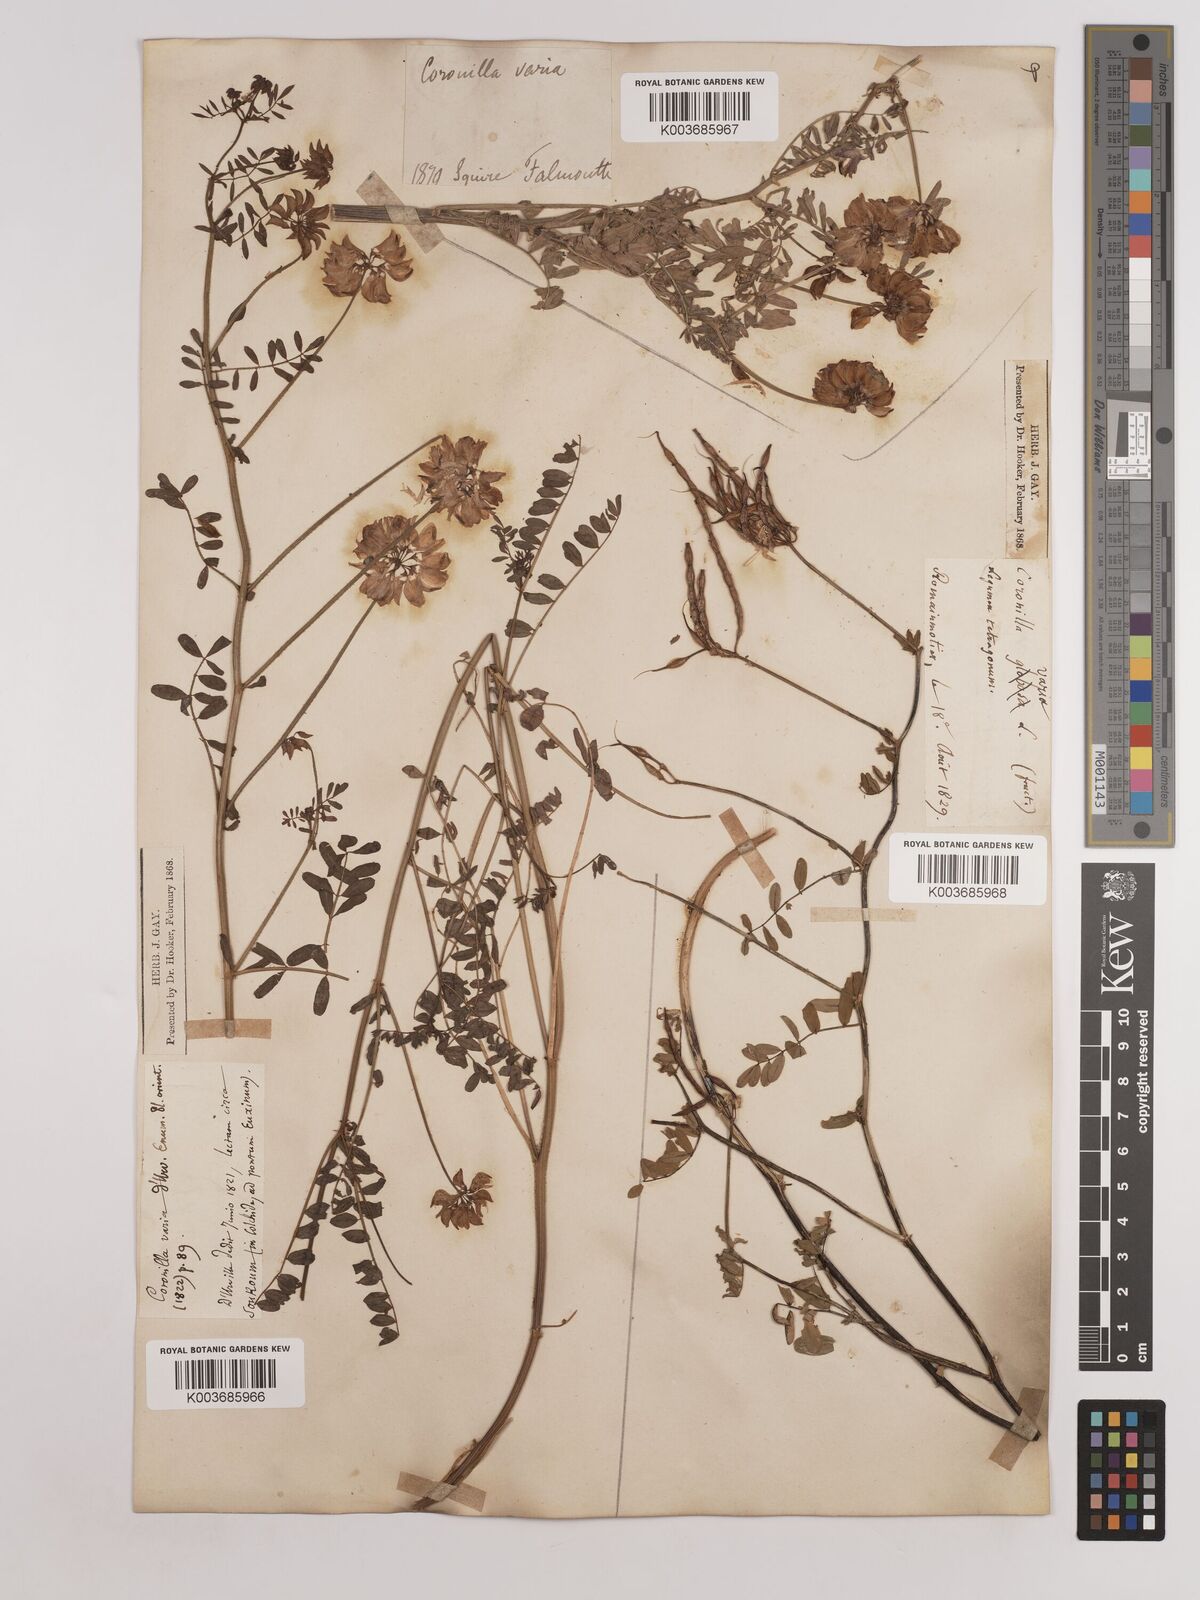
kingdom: Plantae
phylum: Tracheophyta
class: Magnoliopsida
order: Fabales
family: Fabaceae
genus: Coronilla
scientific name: Coronilla varia
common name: Crownvetch
